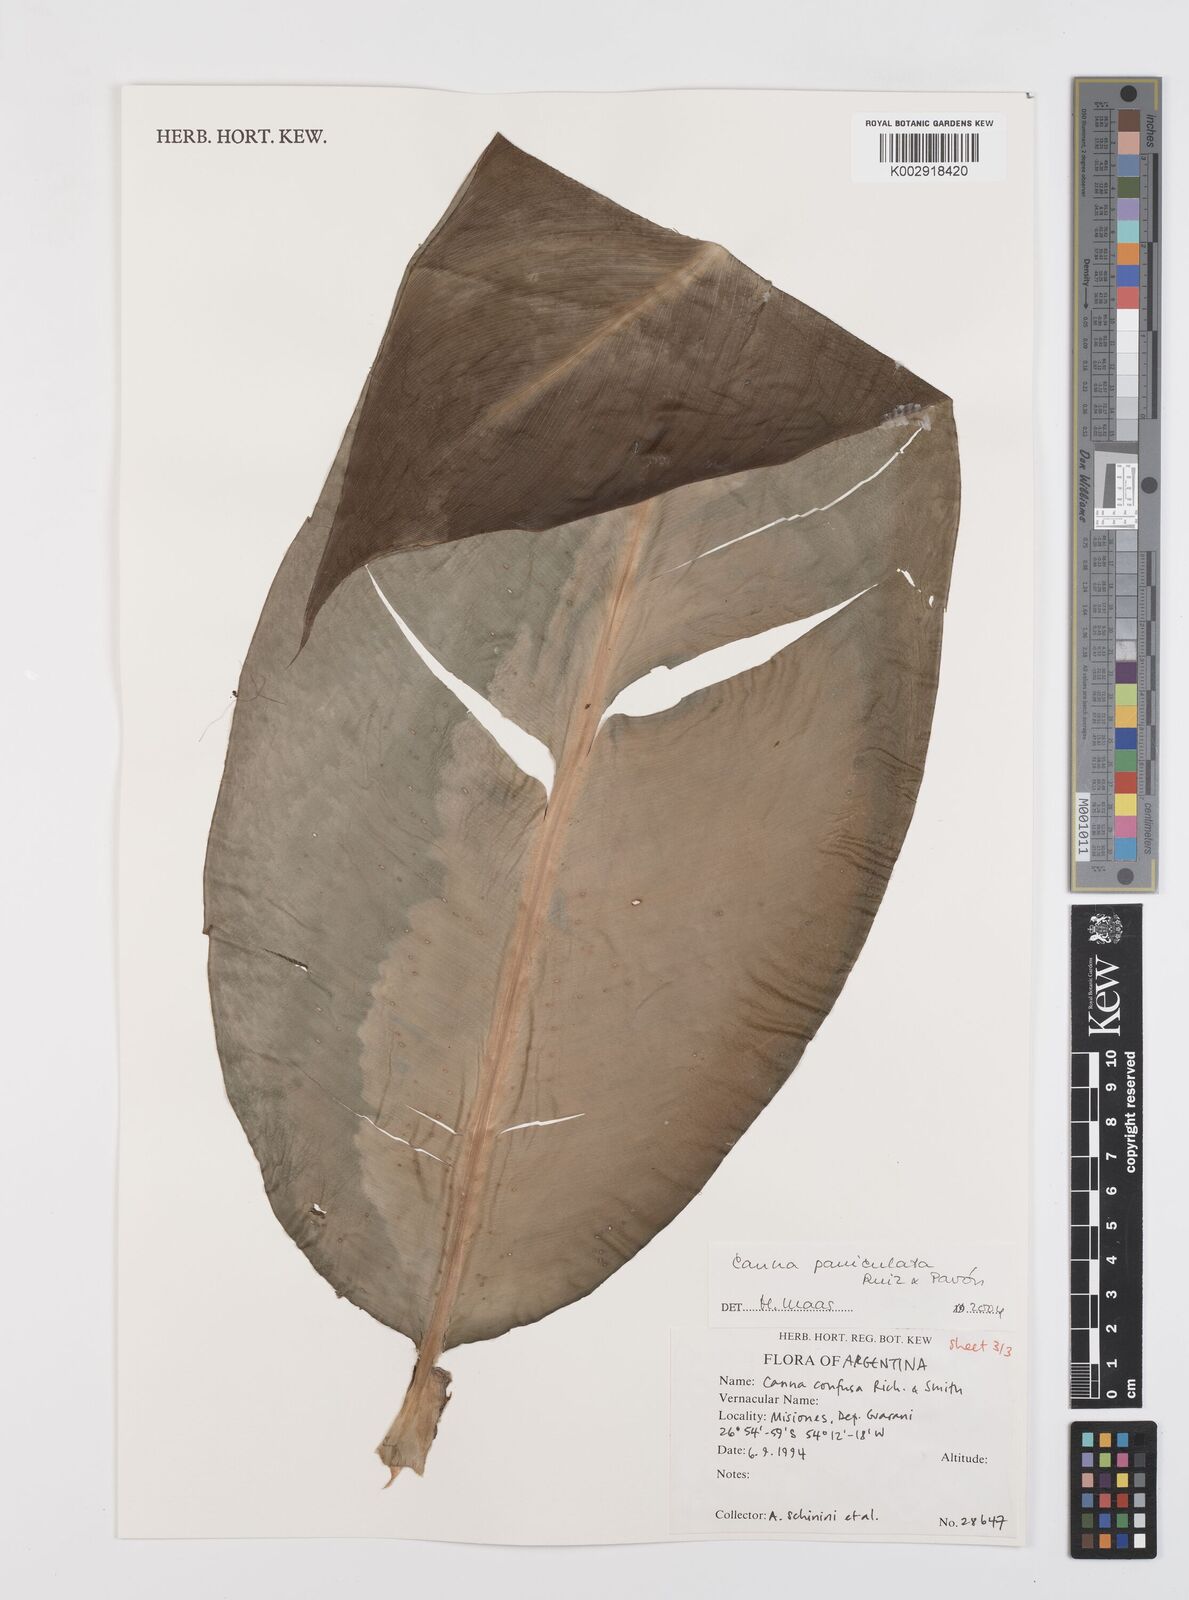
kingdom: Plantae
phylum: Tracheophyta
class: Liliopsida
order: Zingiberales
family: Cannaceae
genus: Canna
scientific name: Canna paniculata
